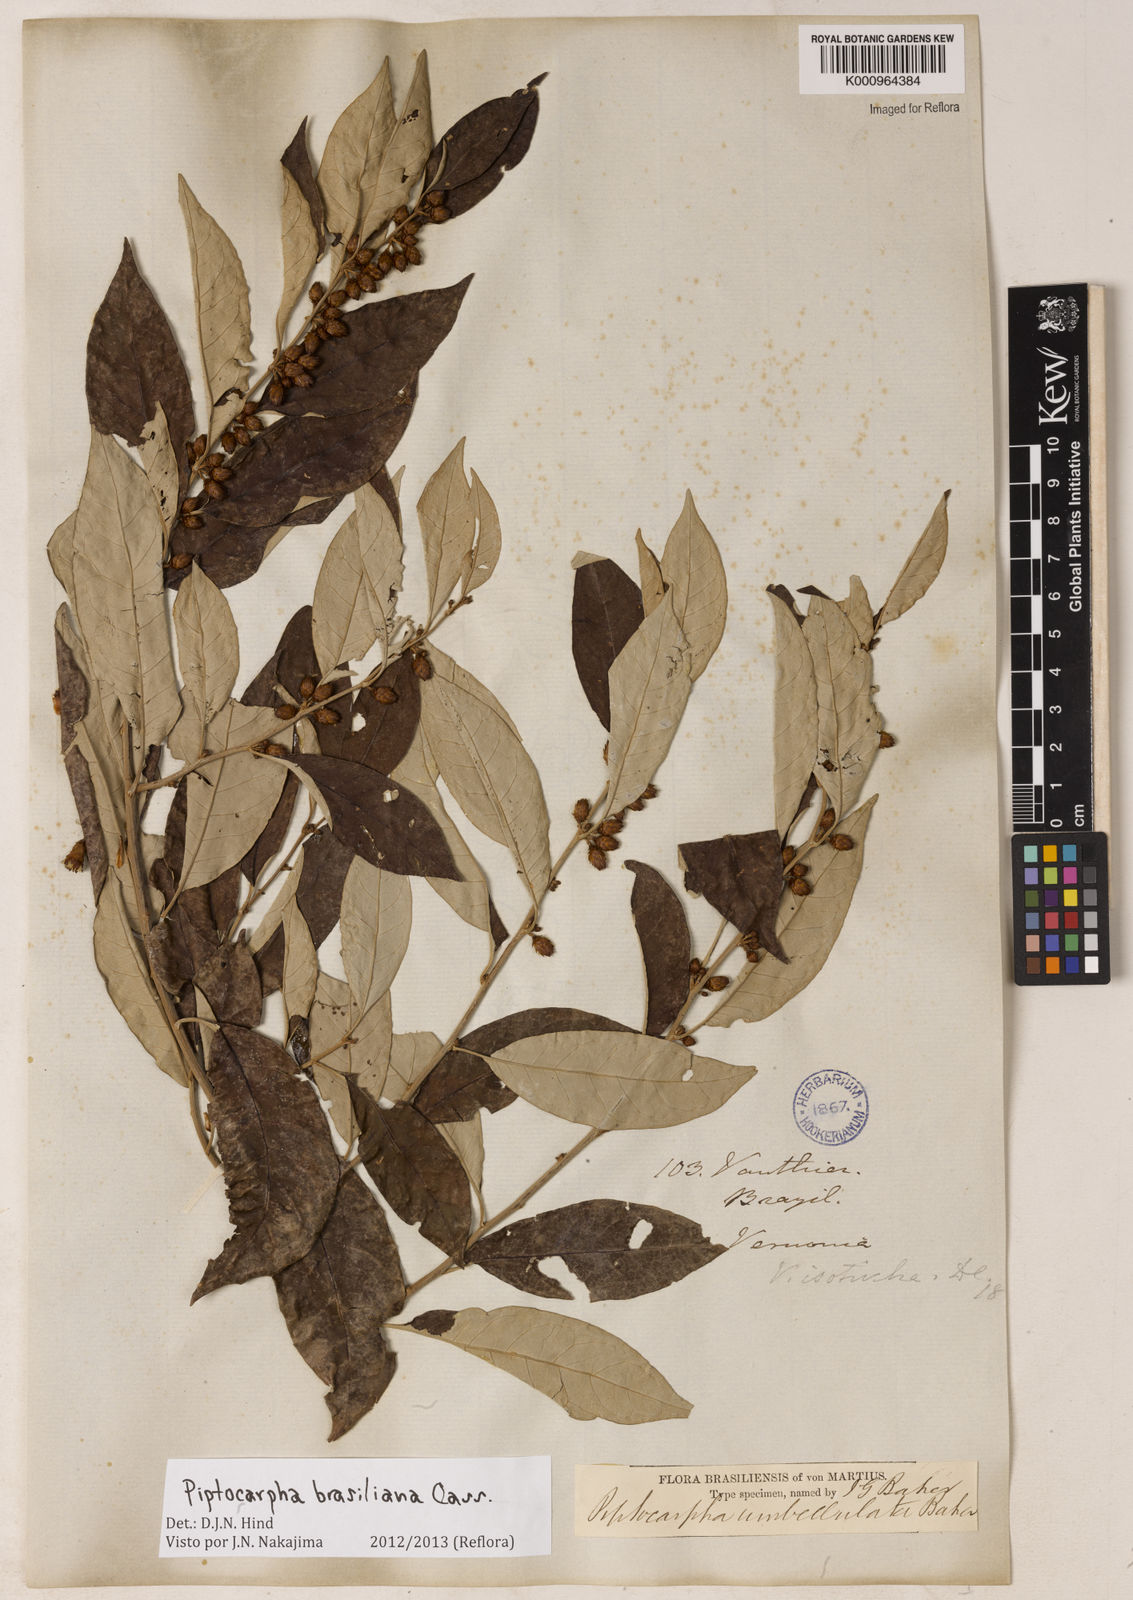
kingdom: Plantae
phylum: Tracheophyta
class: Magnoliopsida
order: Asterales
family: Asteraceae
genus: Piptocarpha
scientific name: Piptocarpha brasiliana
